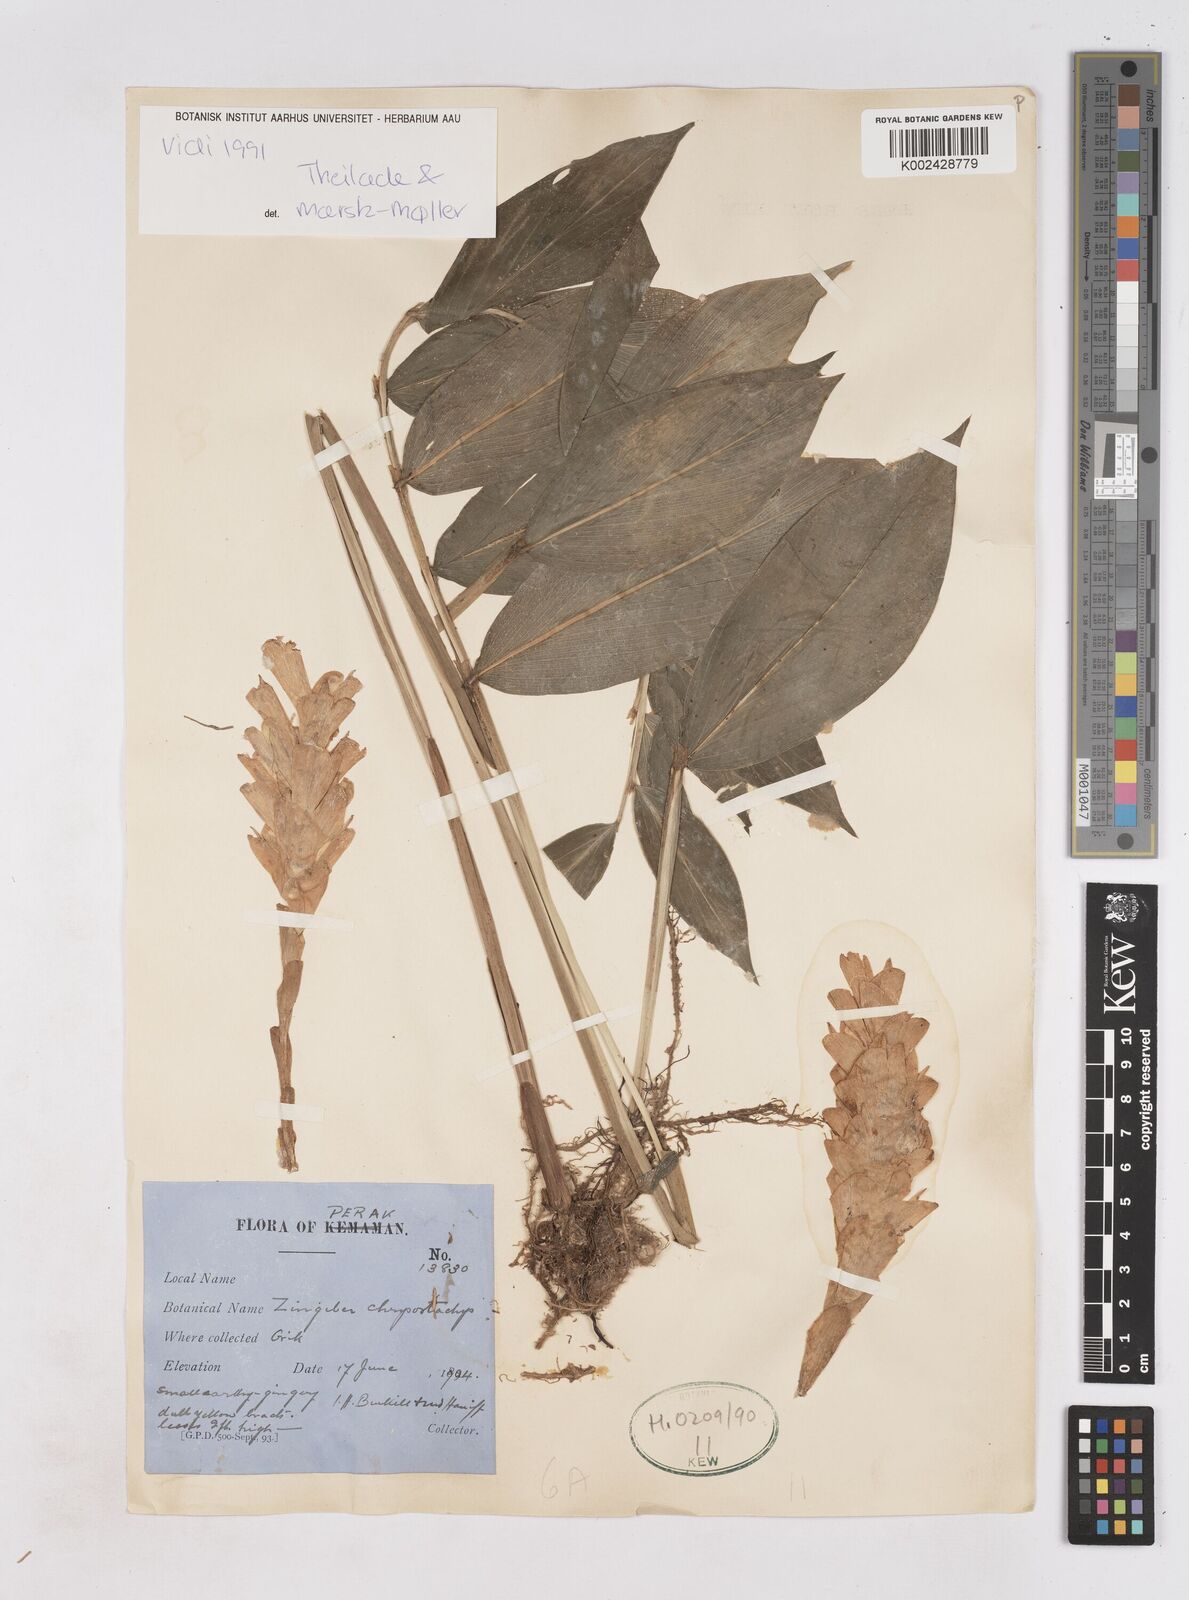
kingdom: Plantae
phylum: Tracheophyta
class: Liliopsida
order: Zingiberales
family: Zingiberaceae
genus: Zingiber
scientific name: Zingiber chrysostachys
